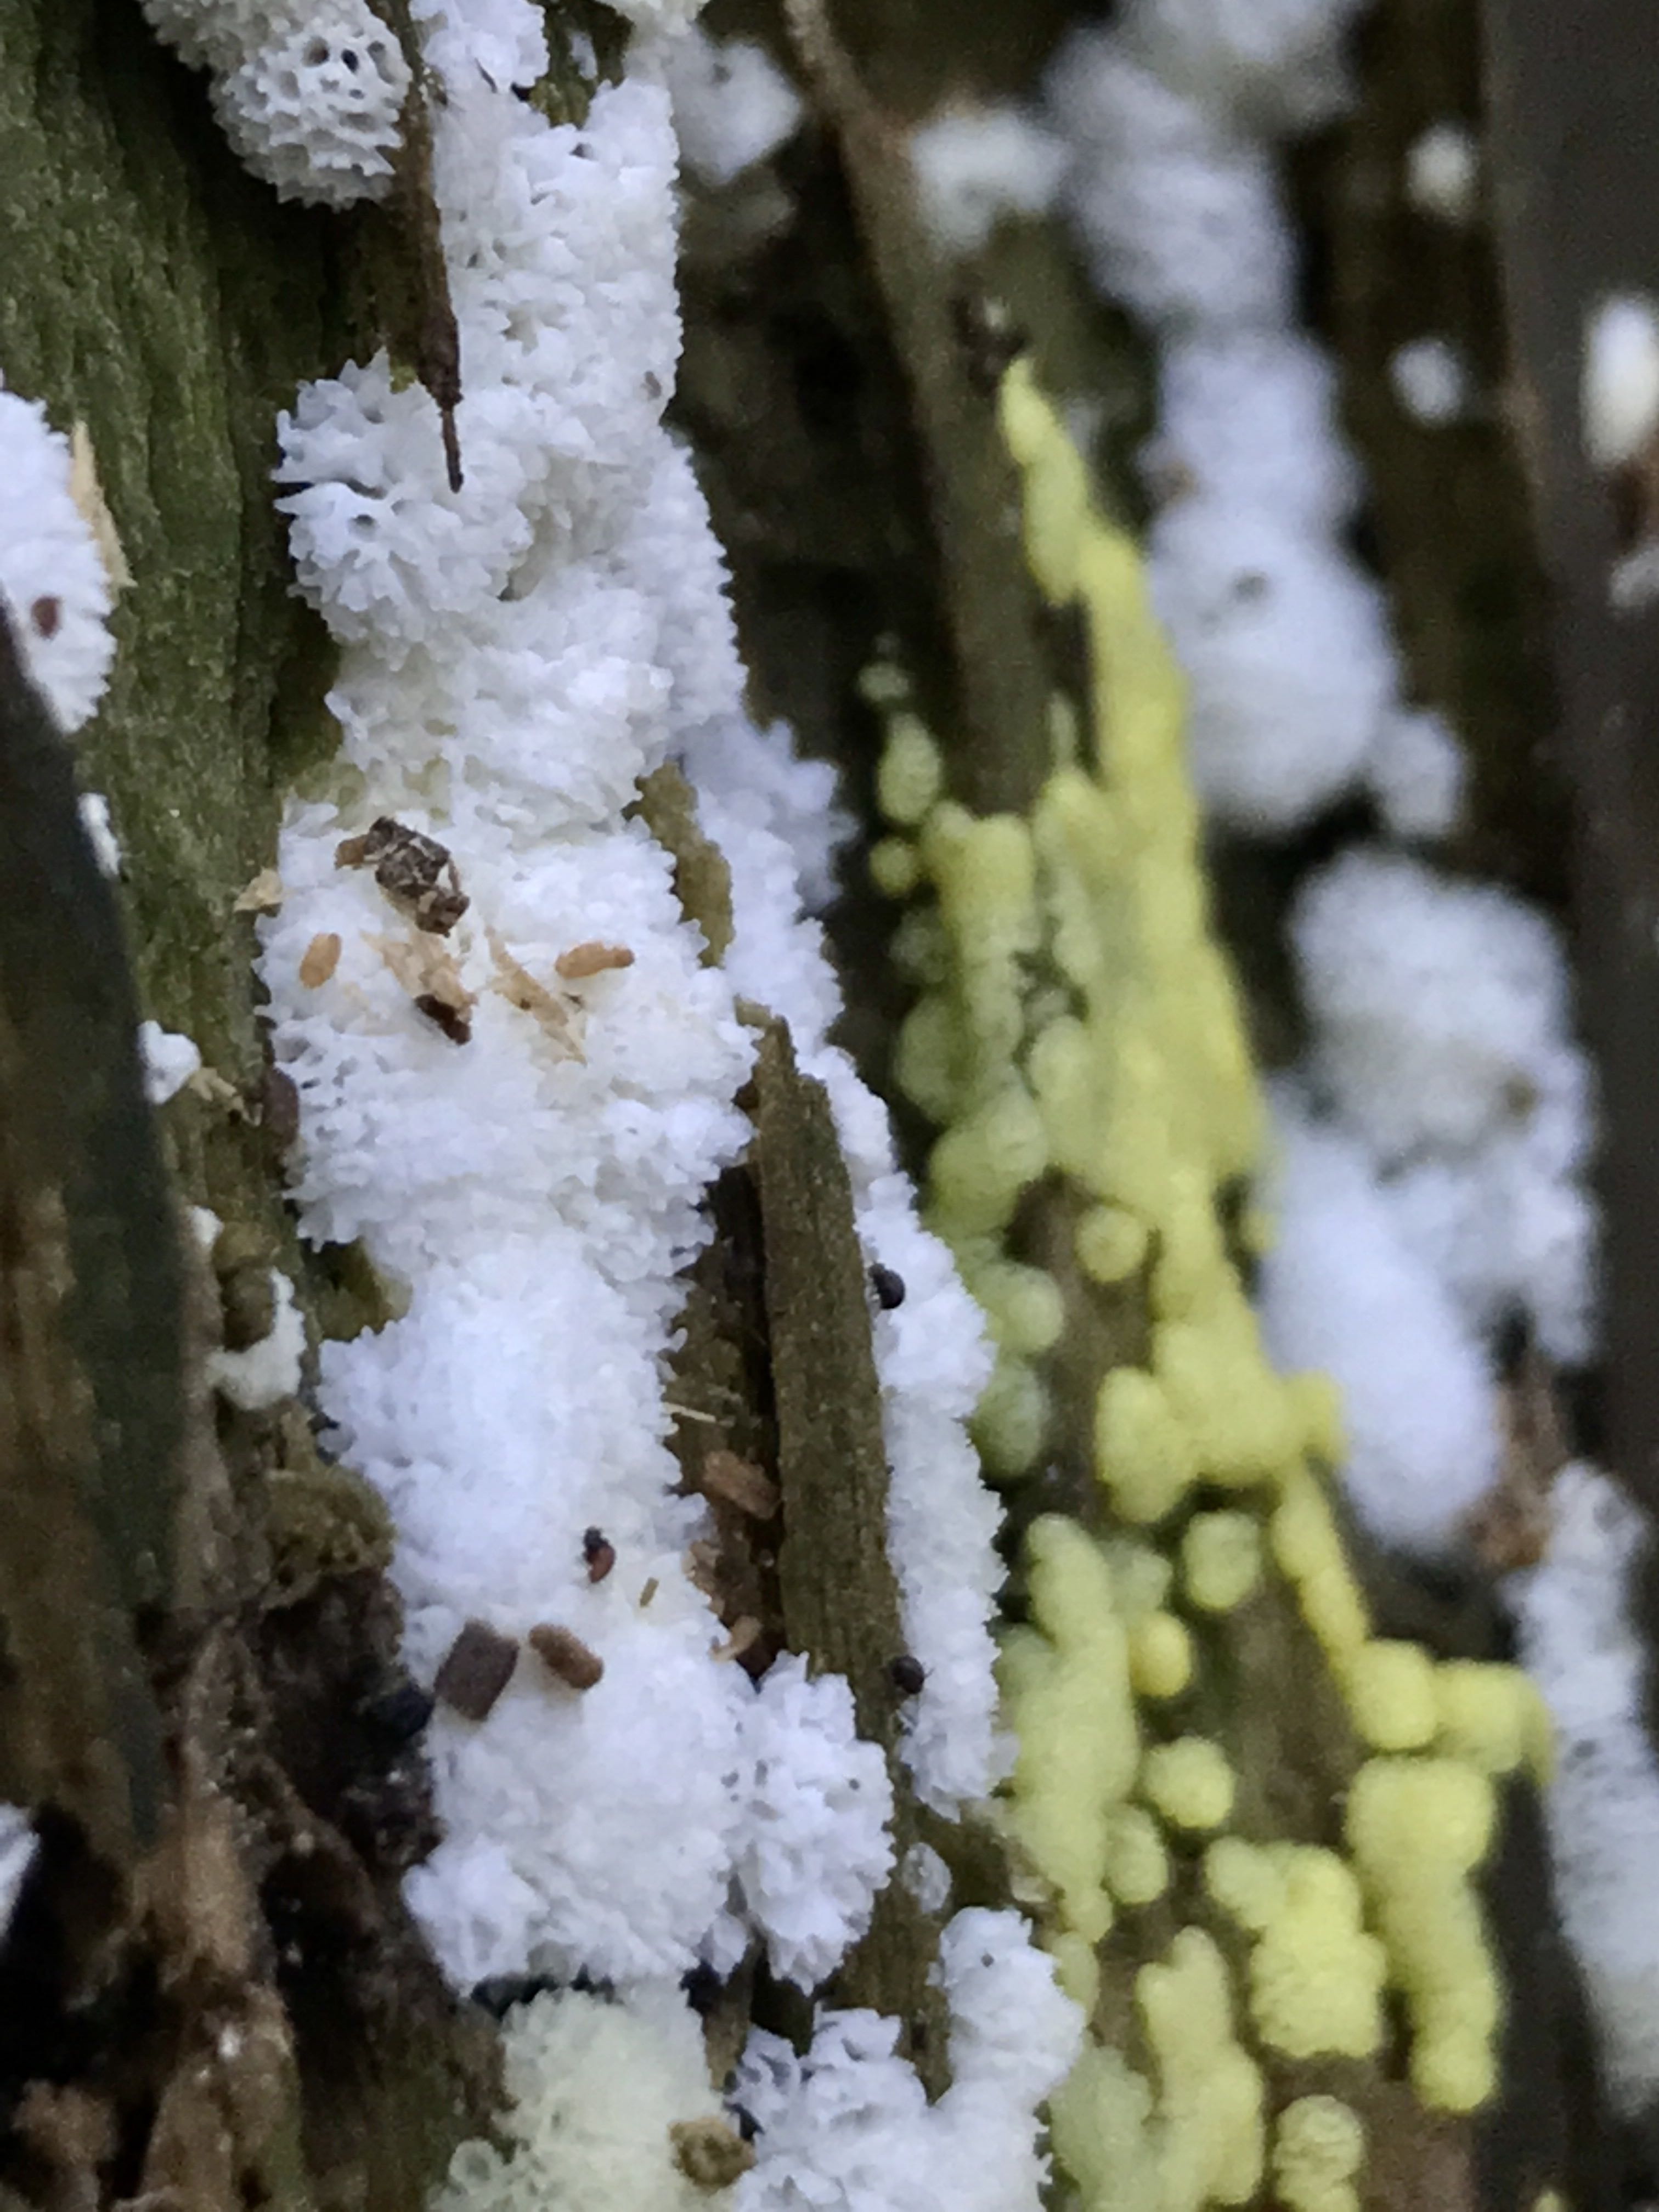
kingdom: Protozoa
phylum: Mycetozoa
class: Protosteliomycetes
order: Ceratiomyxales
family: Ceratiomyxaceae
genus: Ceratiomyxa
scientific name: Ceratiomyxa fruticulosa
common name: Honeycomb coral slime mold
